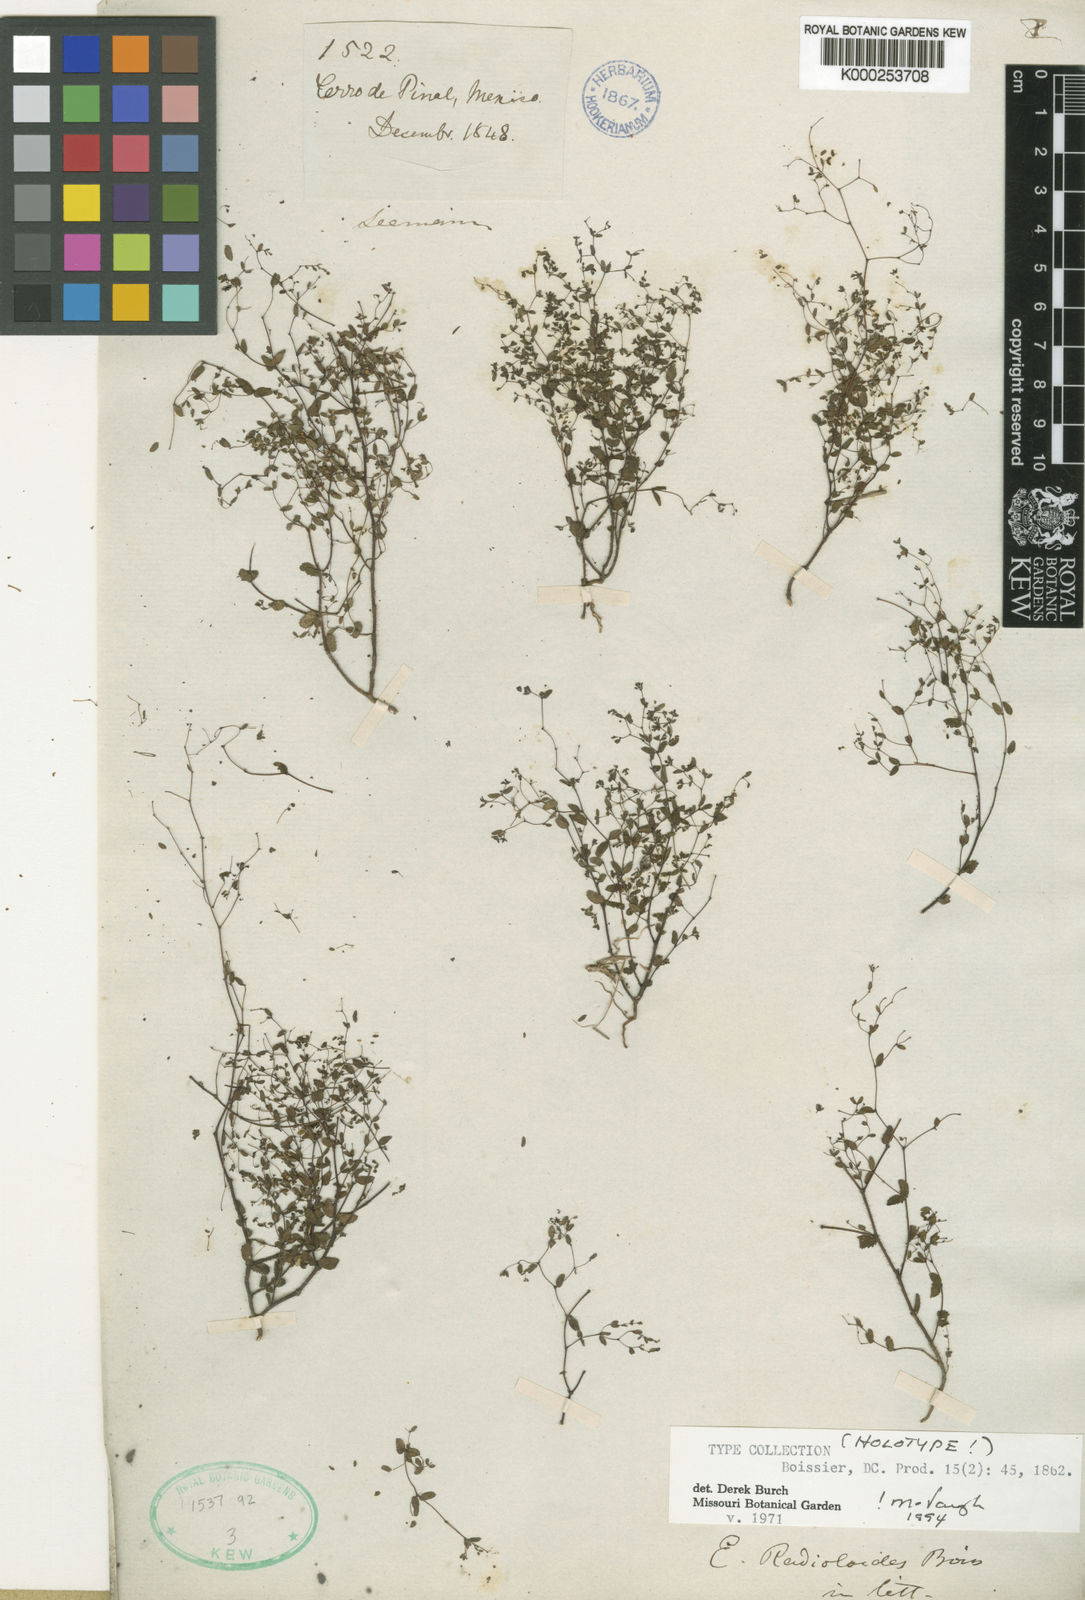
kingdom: Plantae
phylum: Tracheophyta
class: Magnoliopsida
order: Malpighiales
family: Euphorbiaceae
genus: Euphorbia
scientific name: Euphorbia radioloides
